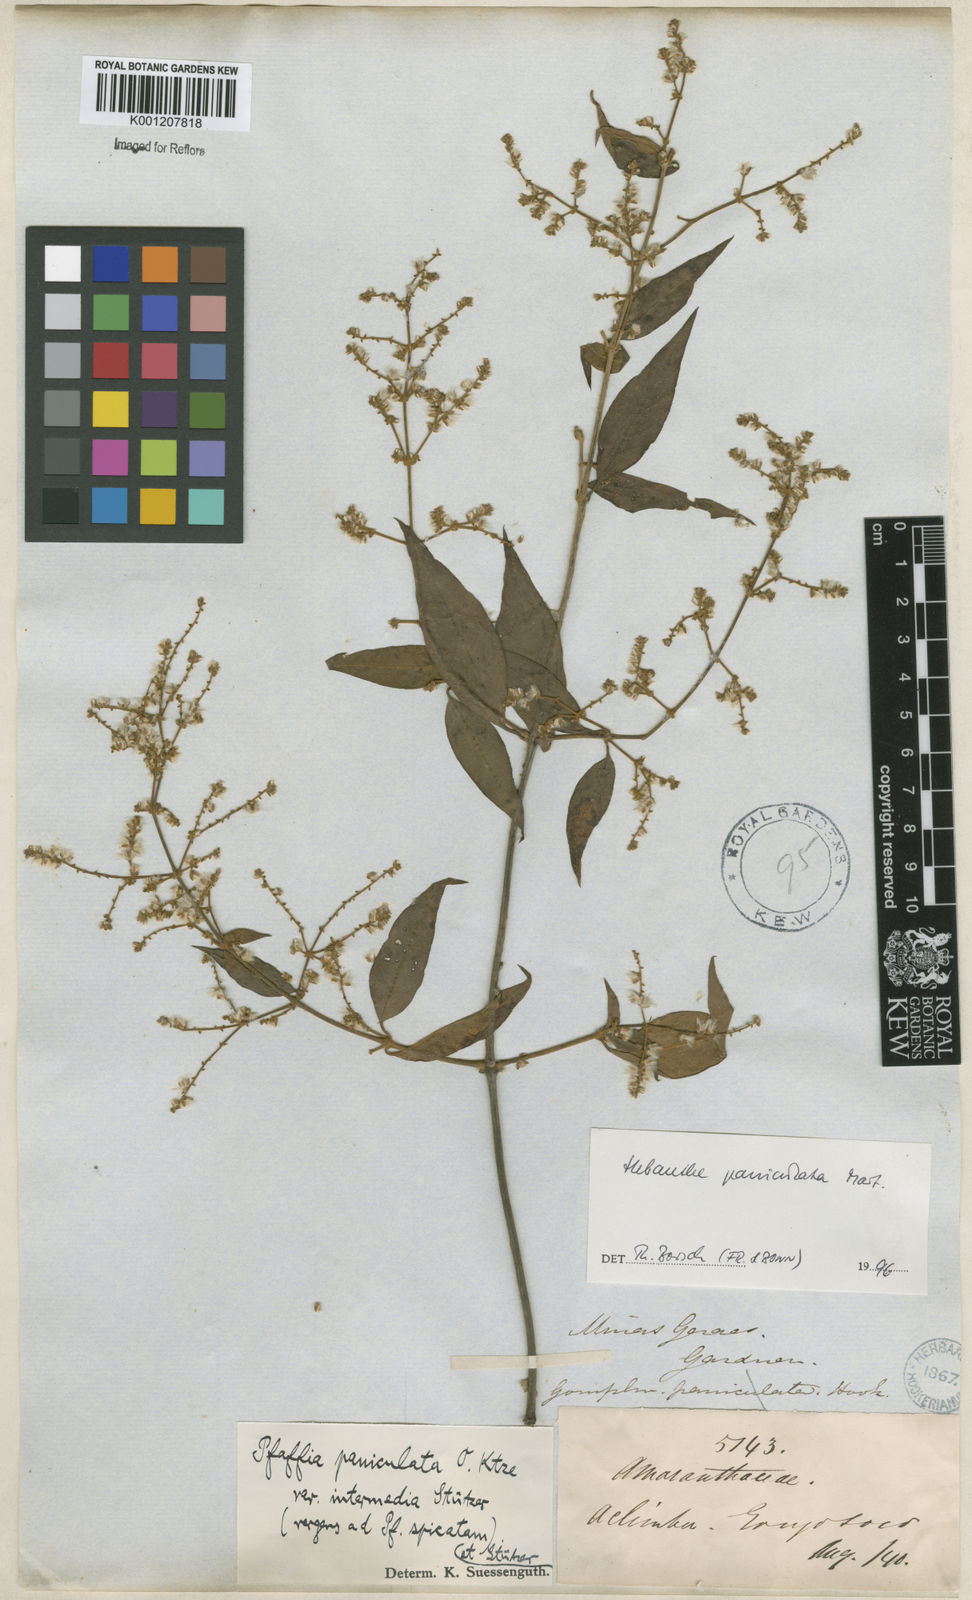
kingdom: Plantae
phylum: Tracheophyta
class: Magnoliopsida
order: Caryophyllales
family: Amaranthaceae
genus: Hebanthe
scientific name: Hebanthe erianthos
